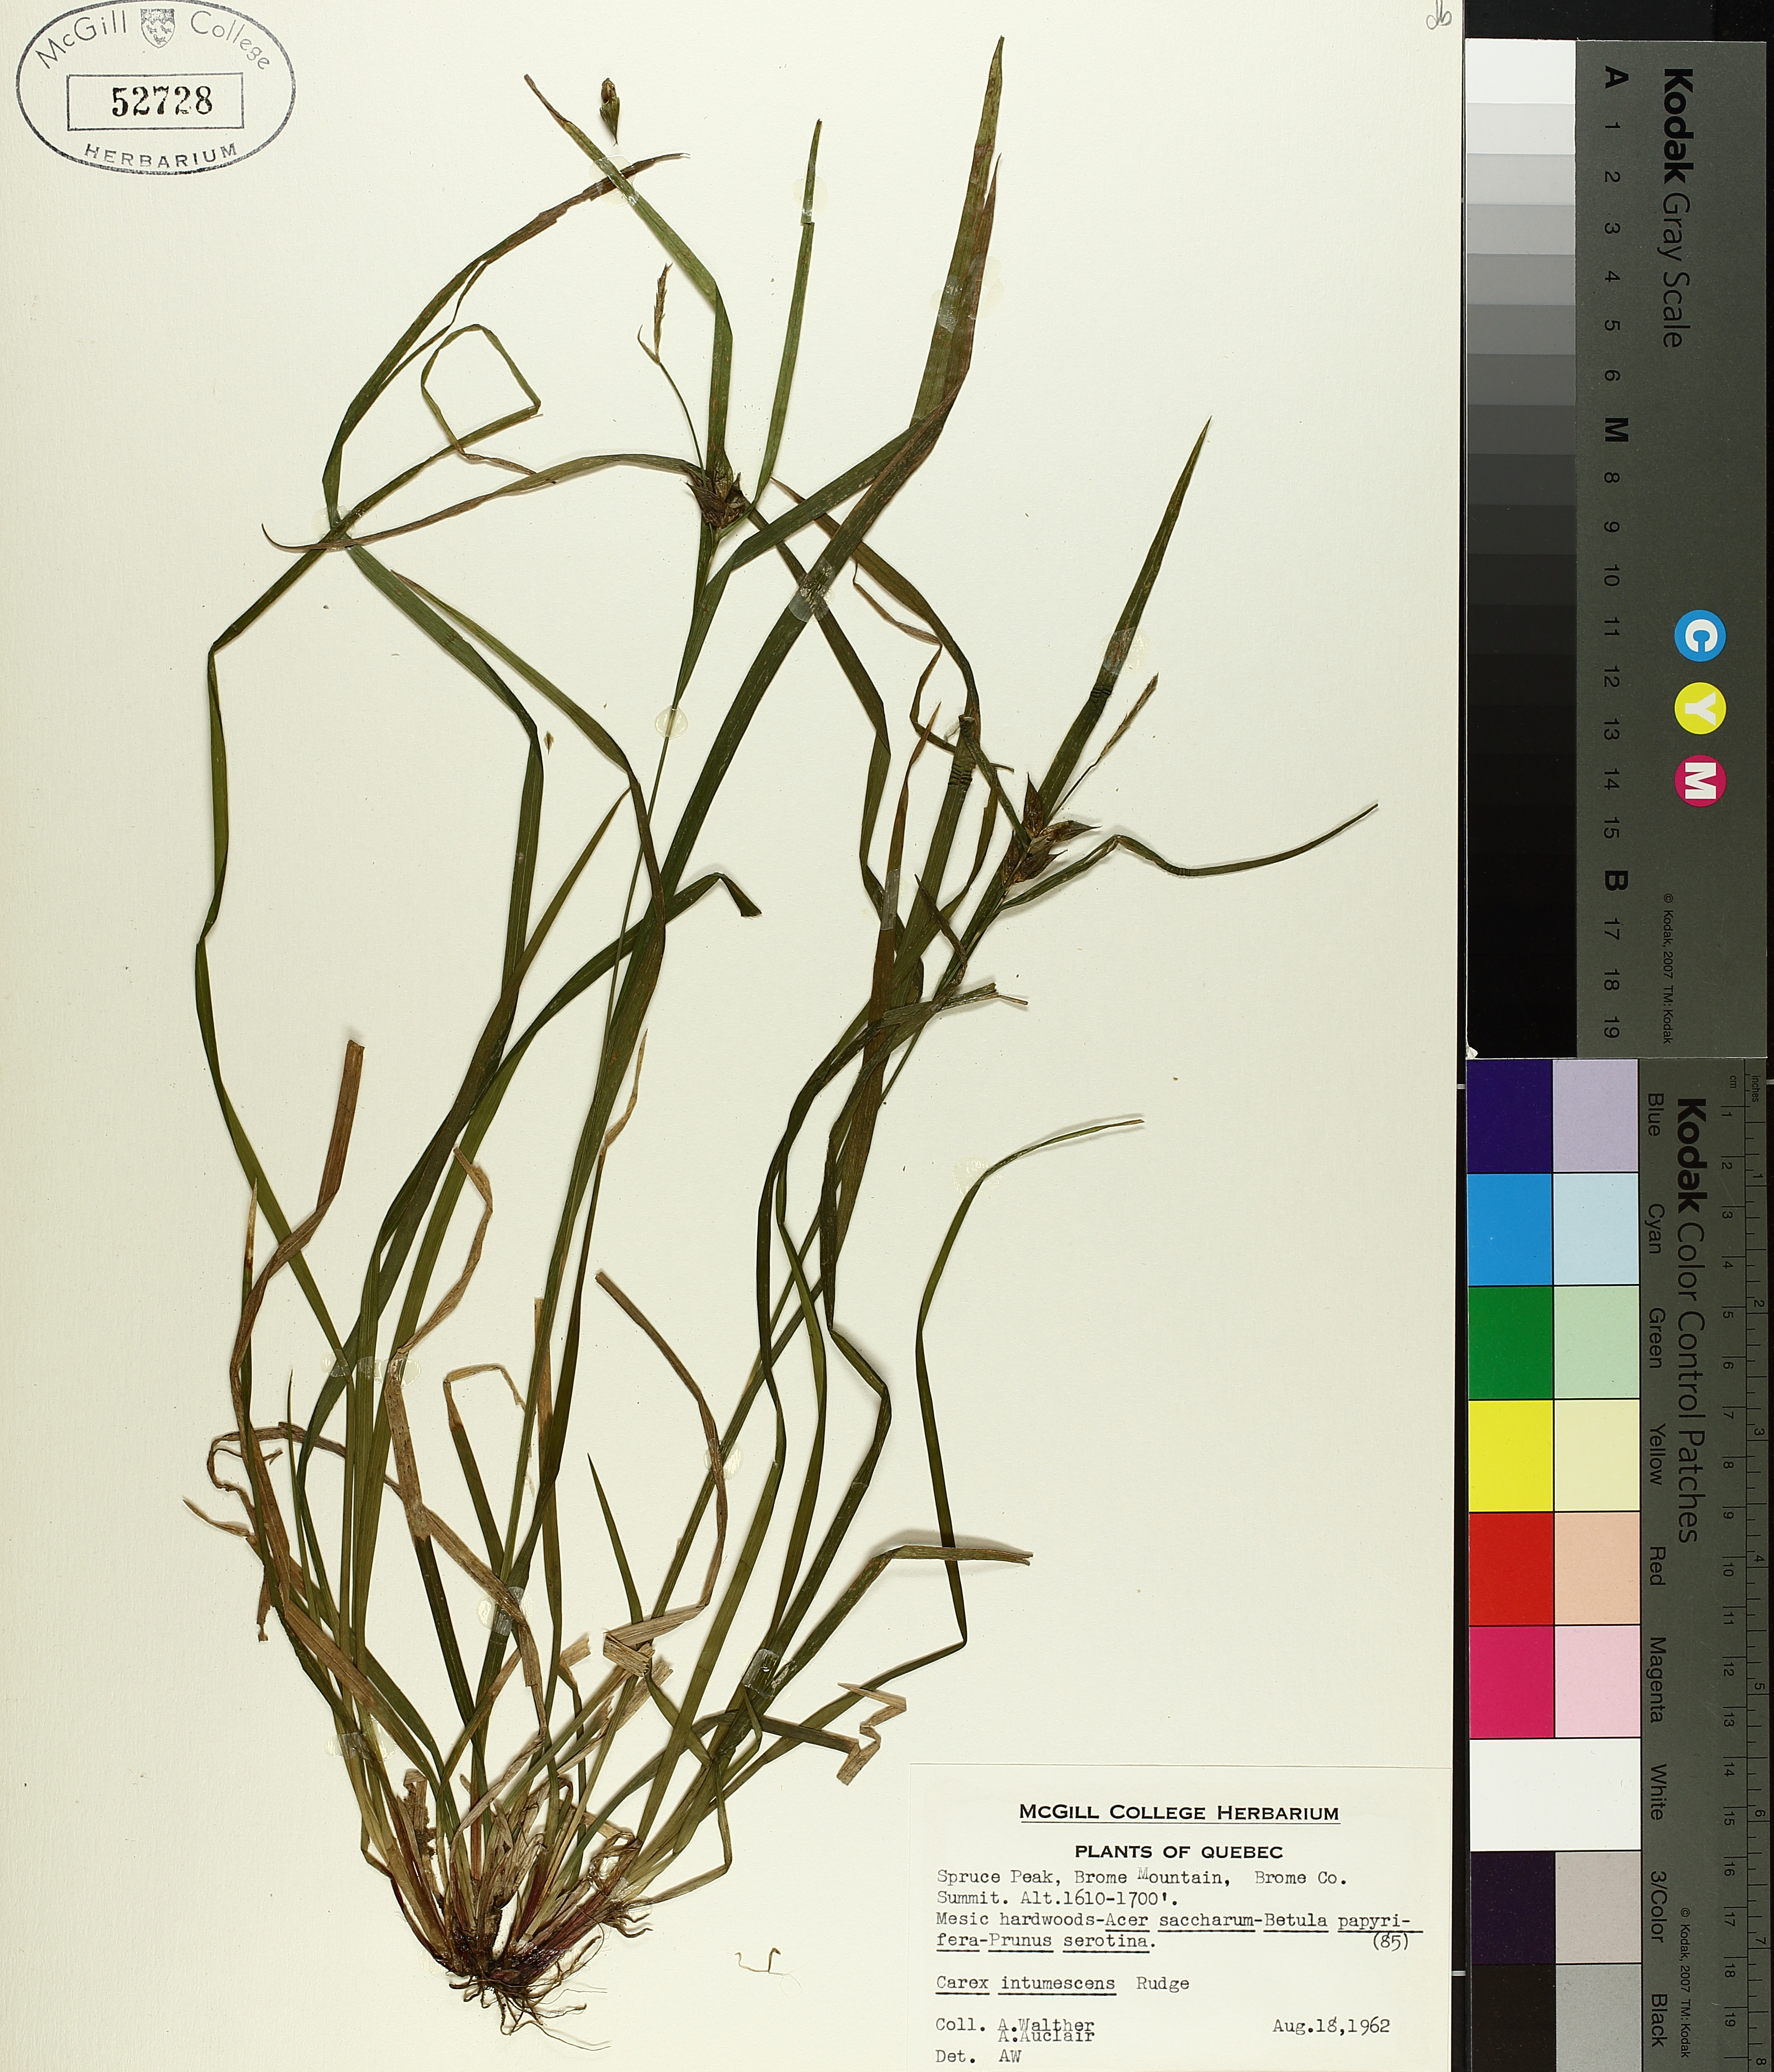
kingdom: Plantae
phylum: Tracheophyta
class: Liliopsida
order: Poales
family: Cyperaceae
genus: Carex
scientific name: Carex intumescens
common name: Greater bladder sedge
